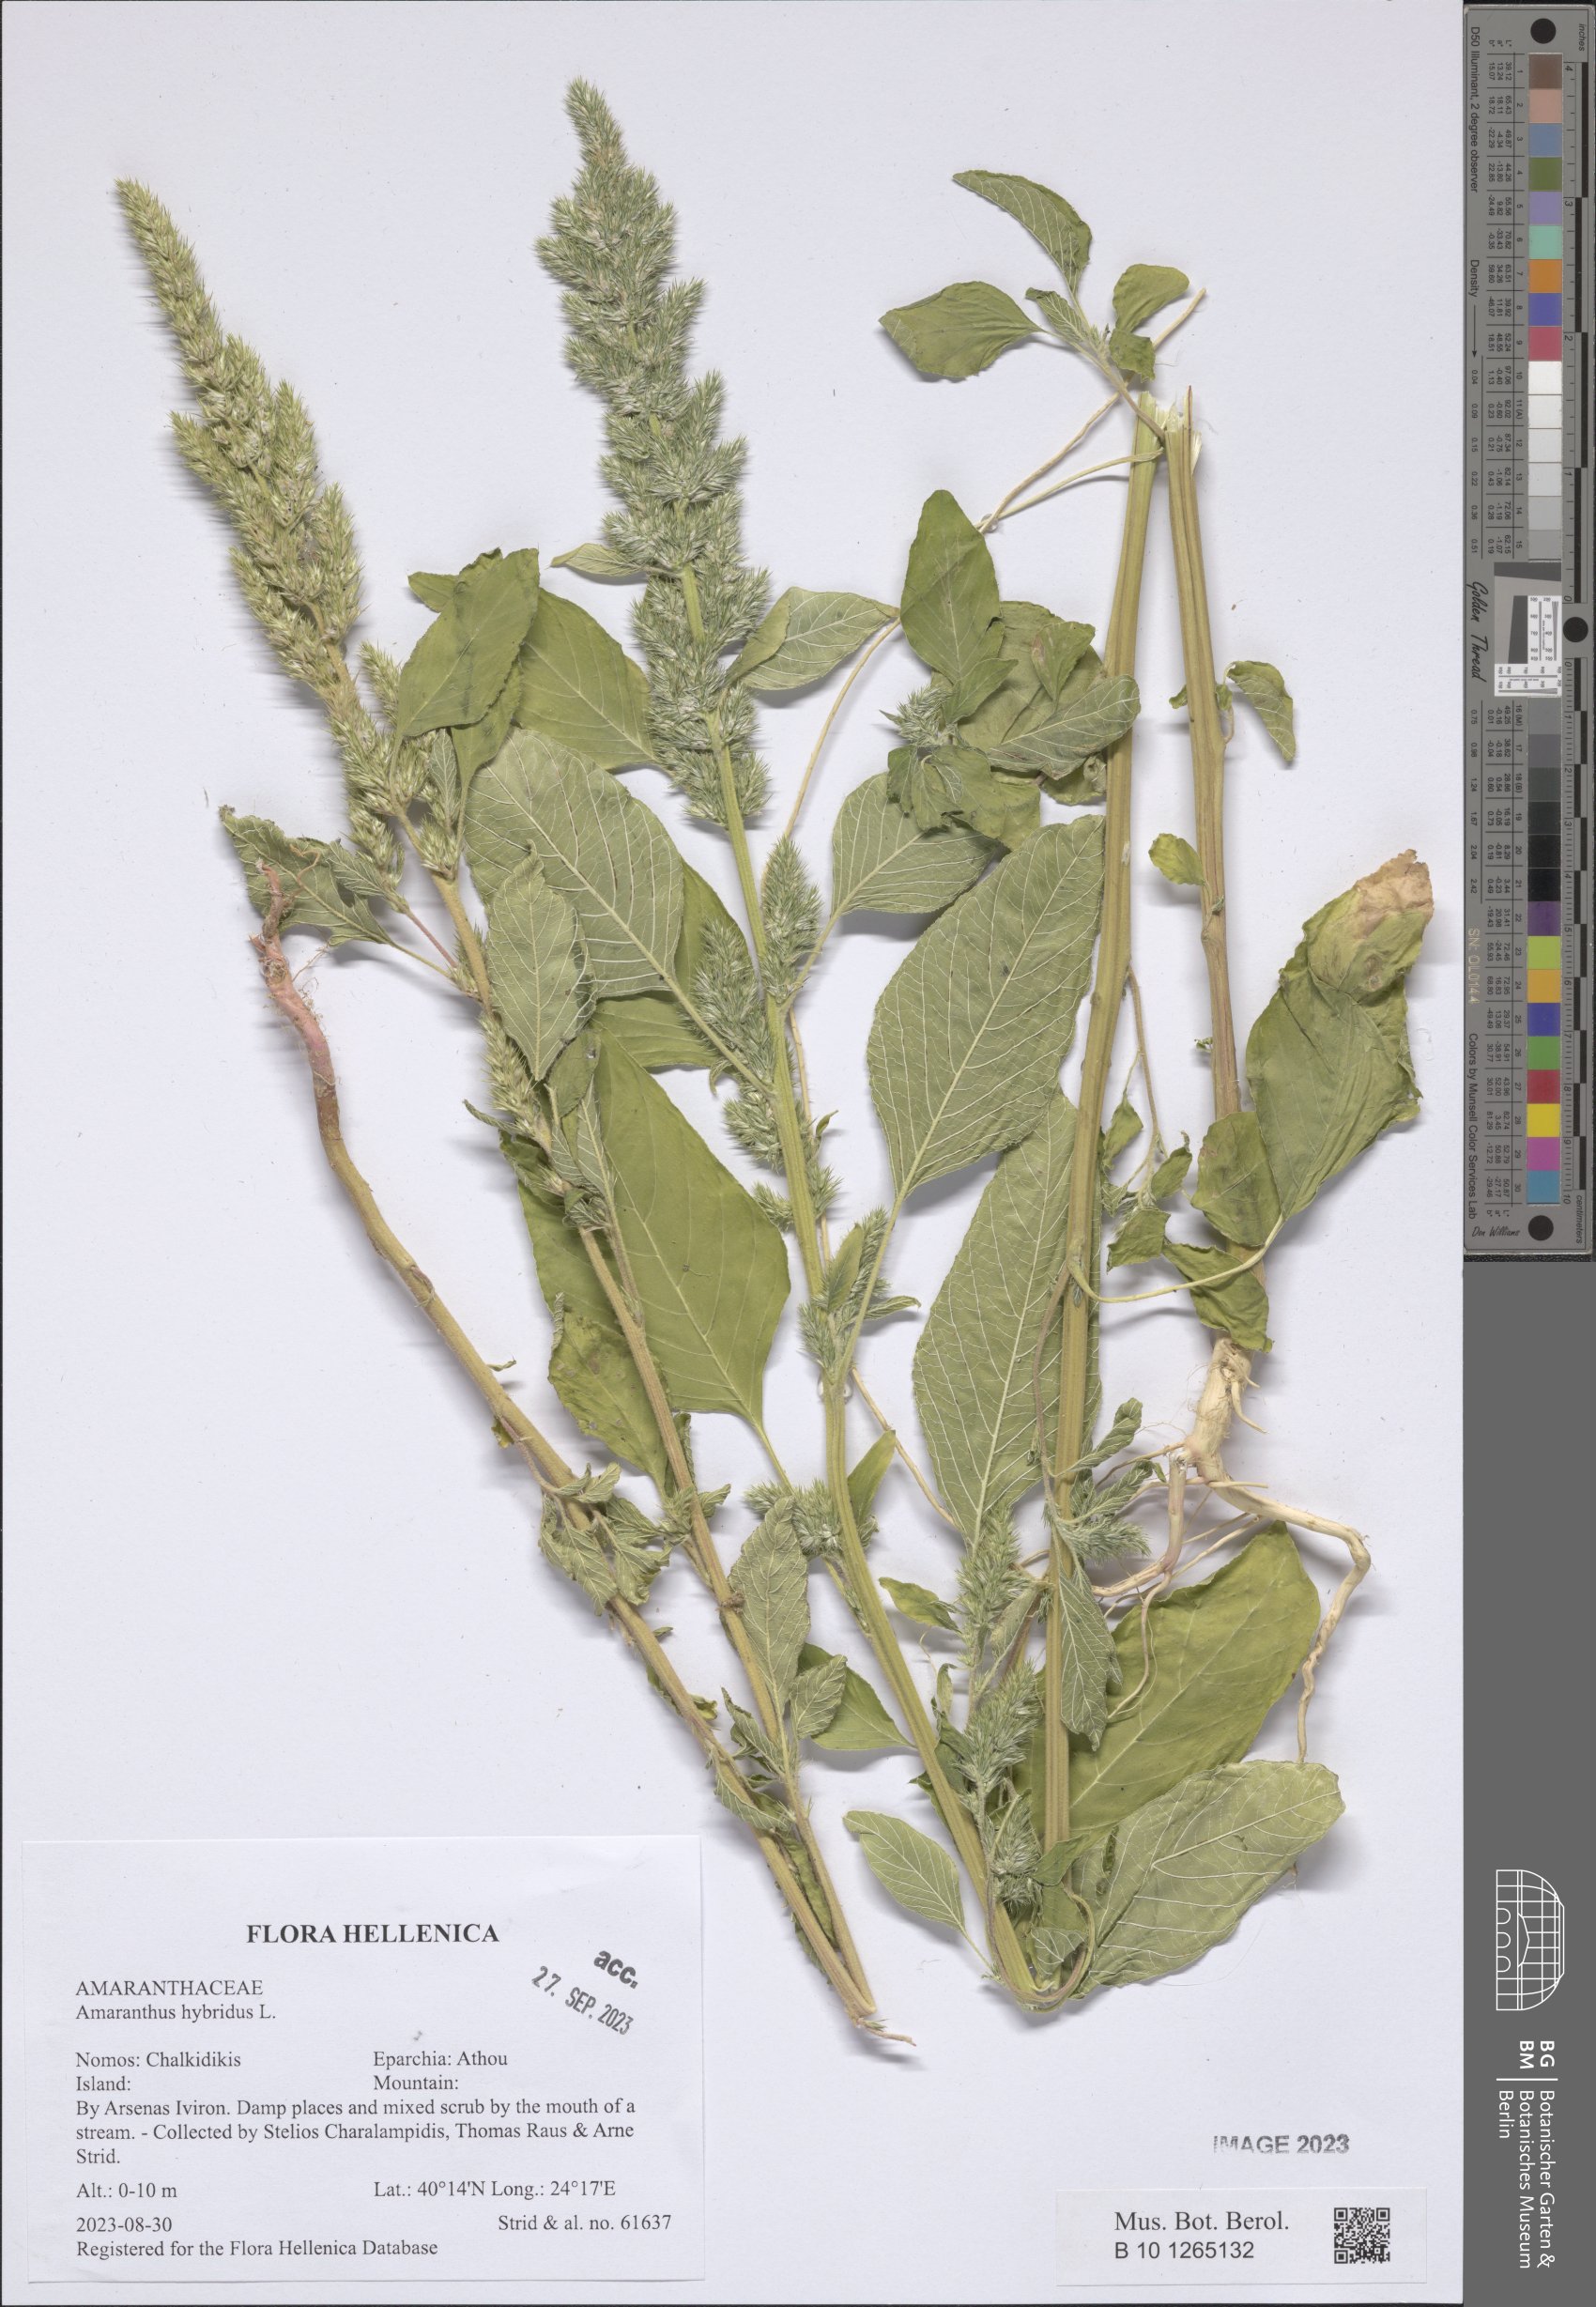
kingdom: Plantae
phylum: Tracheophyta
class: Magnoliopsida
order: Caryophyllales
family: Amaranthaceae
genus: Amaranthus
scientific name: Amaranthus hybridus
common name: Green amaranth
